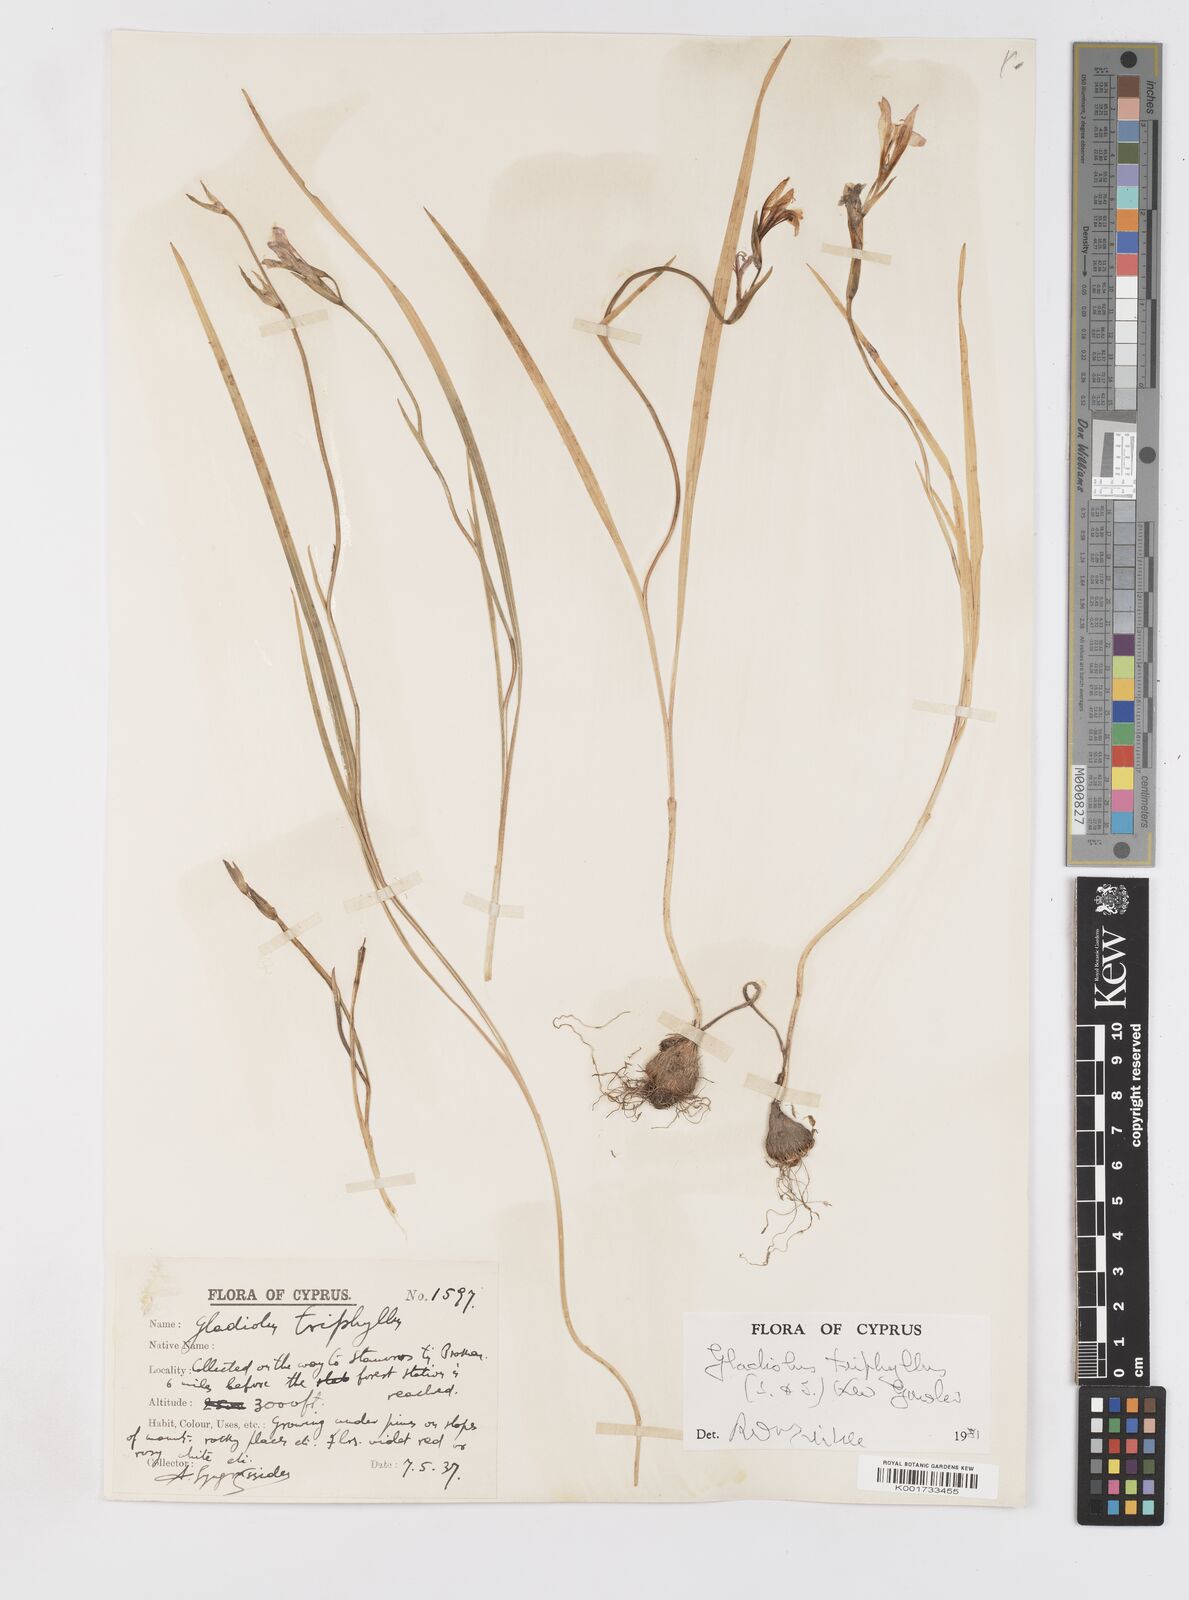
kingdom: Plantae
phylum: Tracheophyta
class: Liliopsida
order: Asparagales
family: Iridaceae
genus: Gladiolus
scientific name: Gladiolus triphyllus
